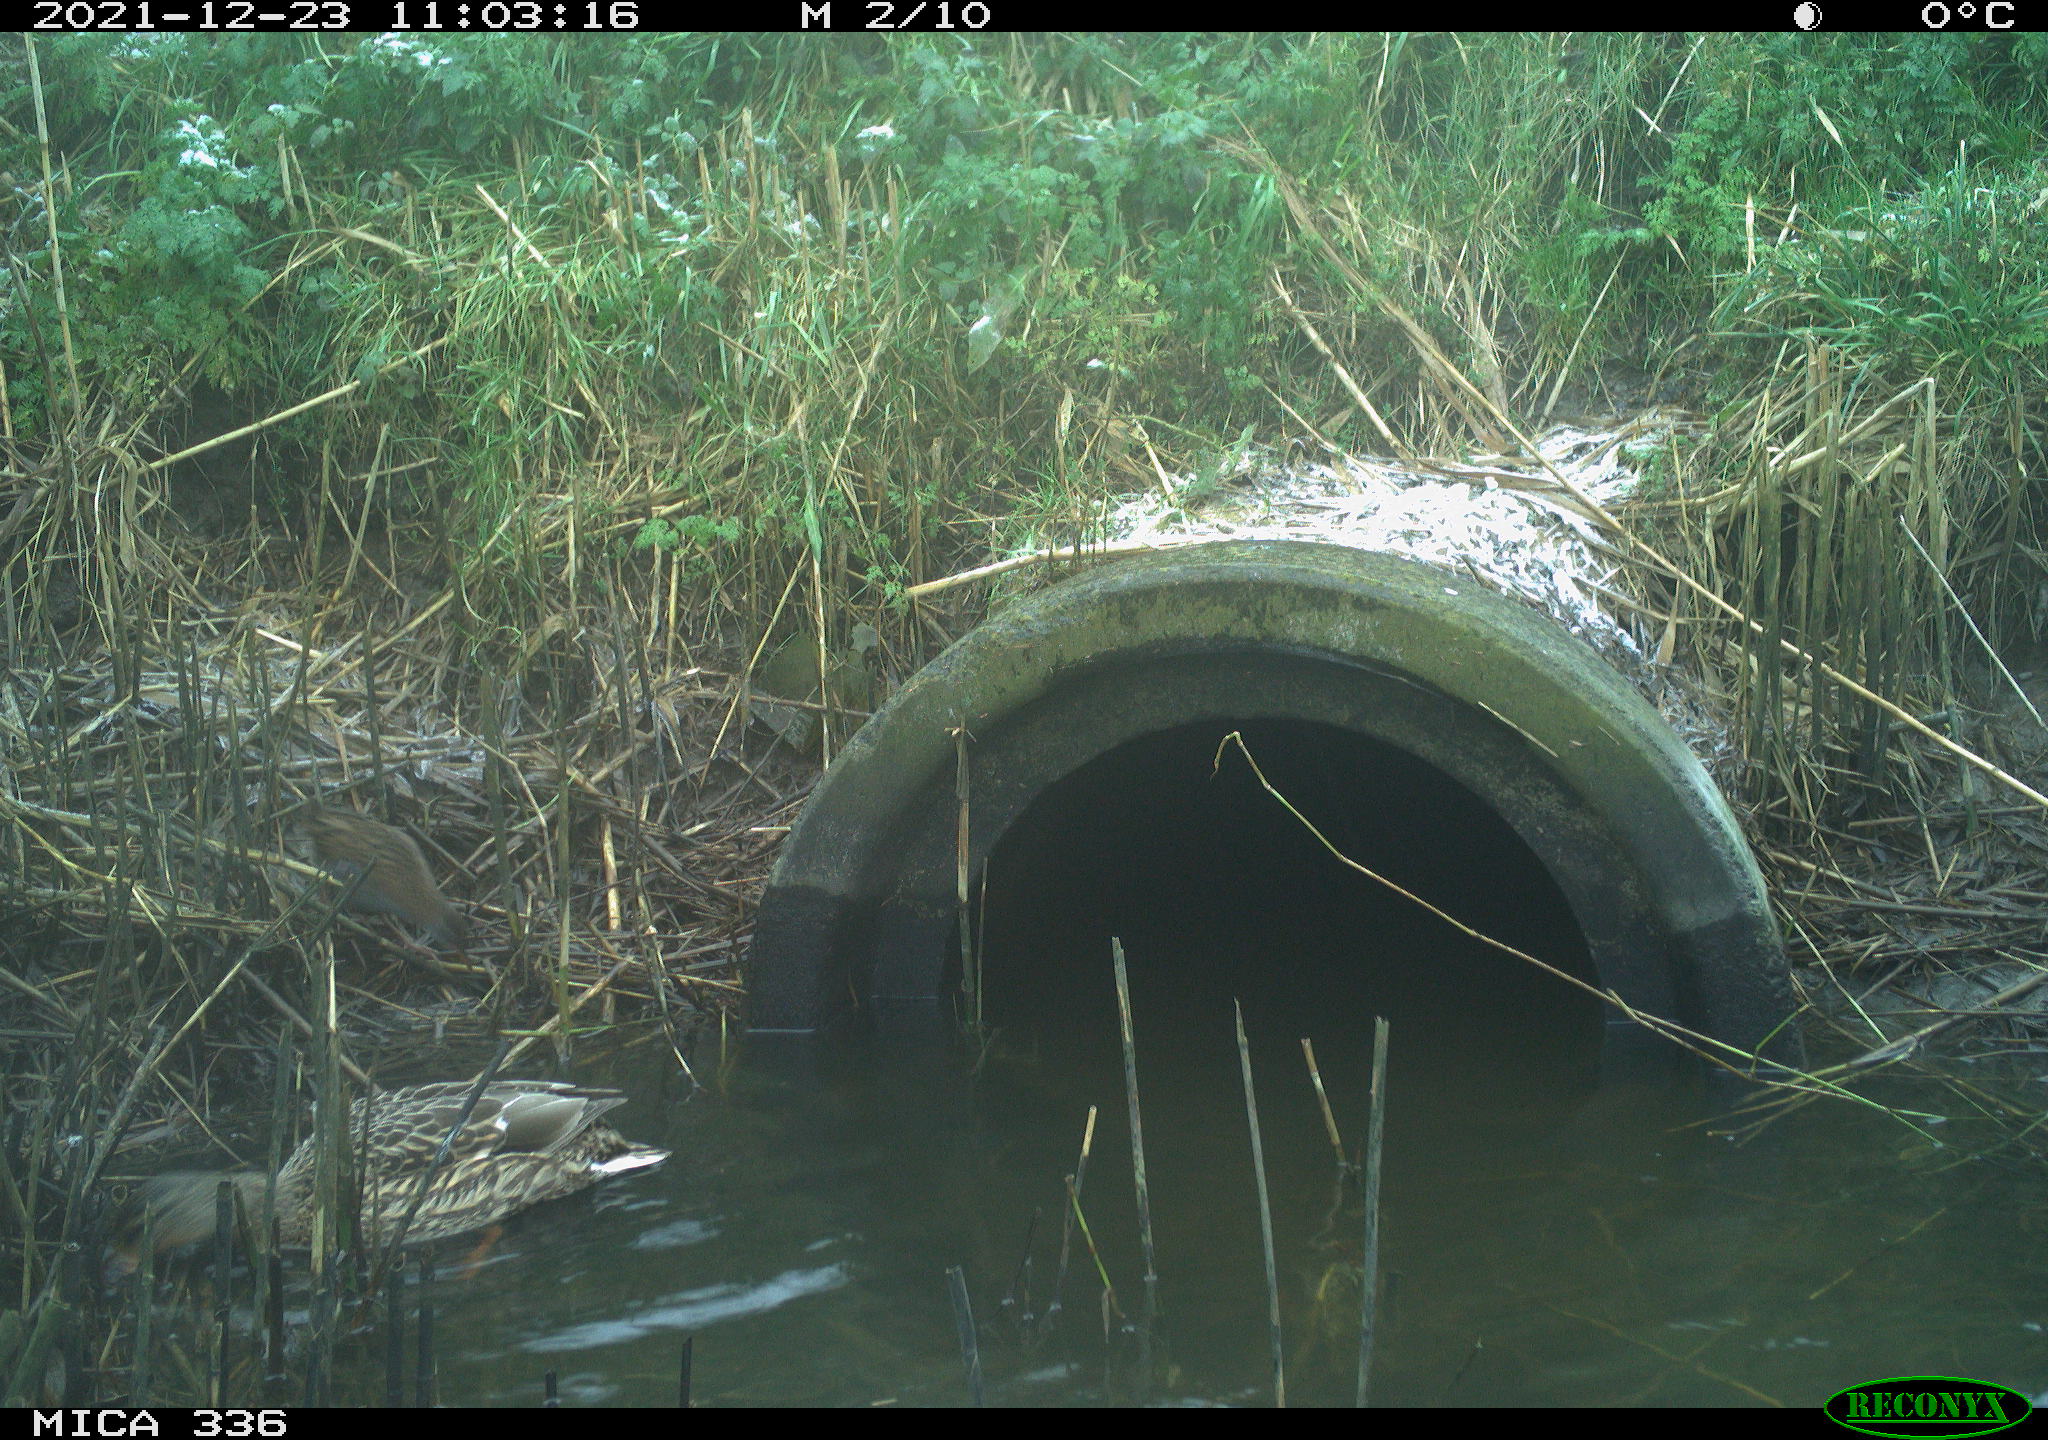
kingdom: Animalia
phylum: Chordata
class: Aves
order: Anseriformes
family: Anatidae
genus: Anas
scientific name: Anas platyrhynchos
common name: Mallard
